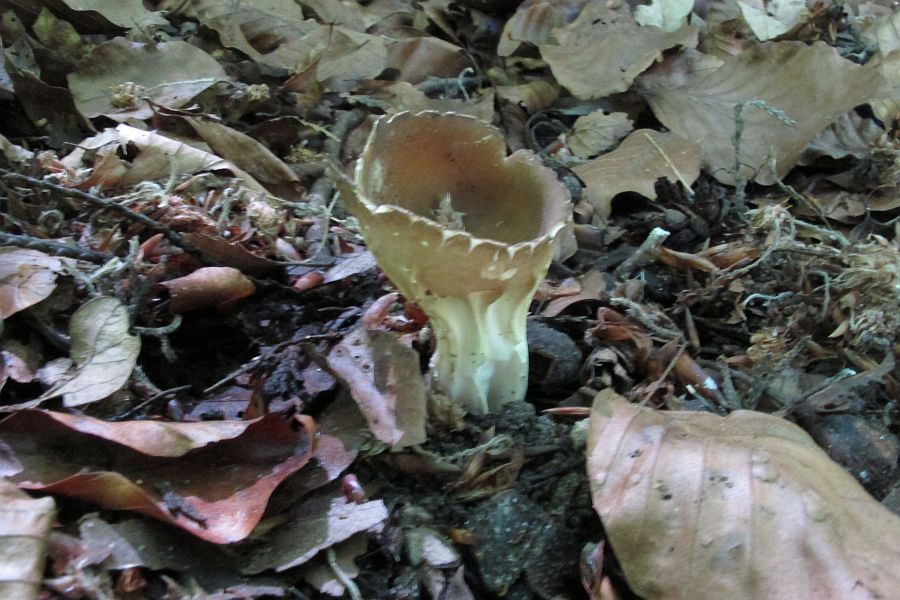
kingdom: Fungi
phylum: Ascomycota
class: Pezizomycetes
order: Pezizales
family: Helvellaceae
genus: Helvella
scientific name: Helvella acetabulum
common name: pokal-foldhat
